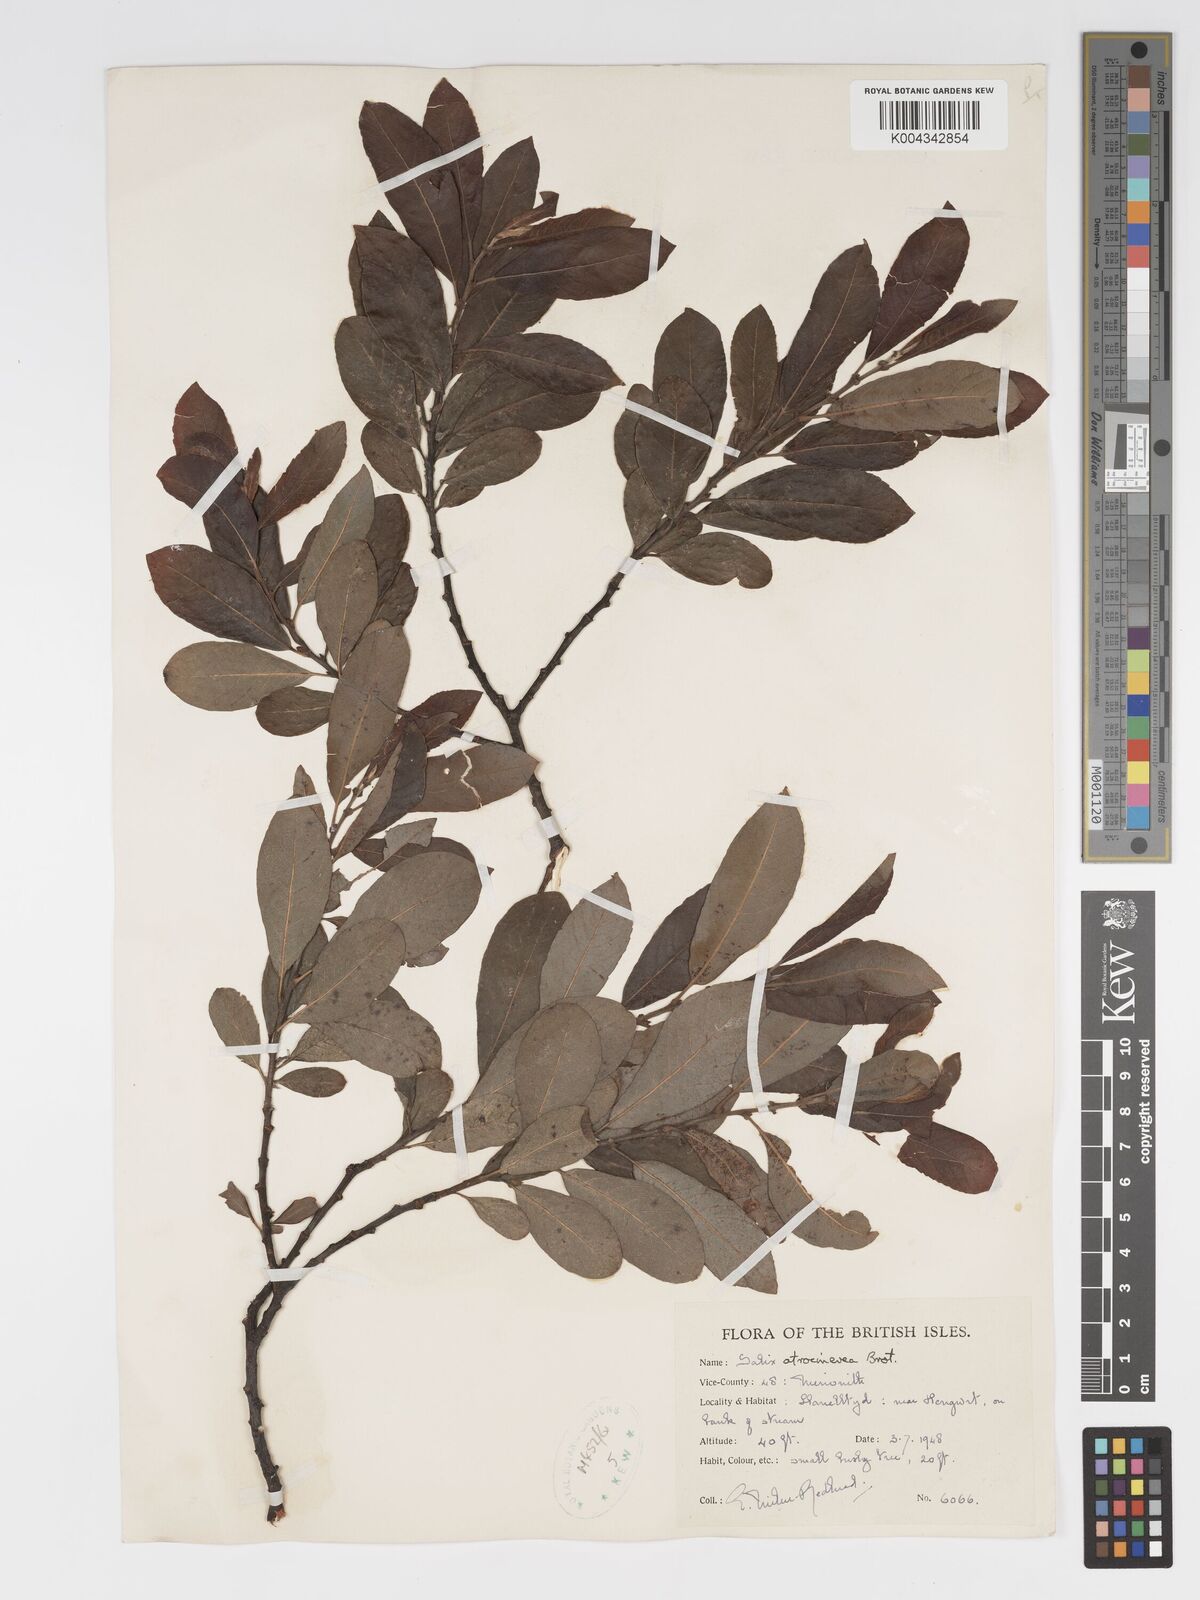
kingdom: Plantae
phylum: Tracheophyta
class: Magnoliopsida
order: Malpighiales
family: Salicaceae
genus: Salix
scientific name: Salix atrocinerea
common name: Rusty willow
